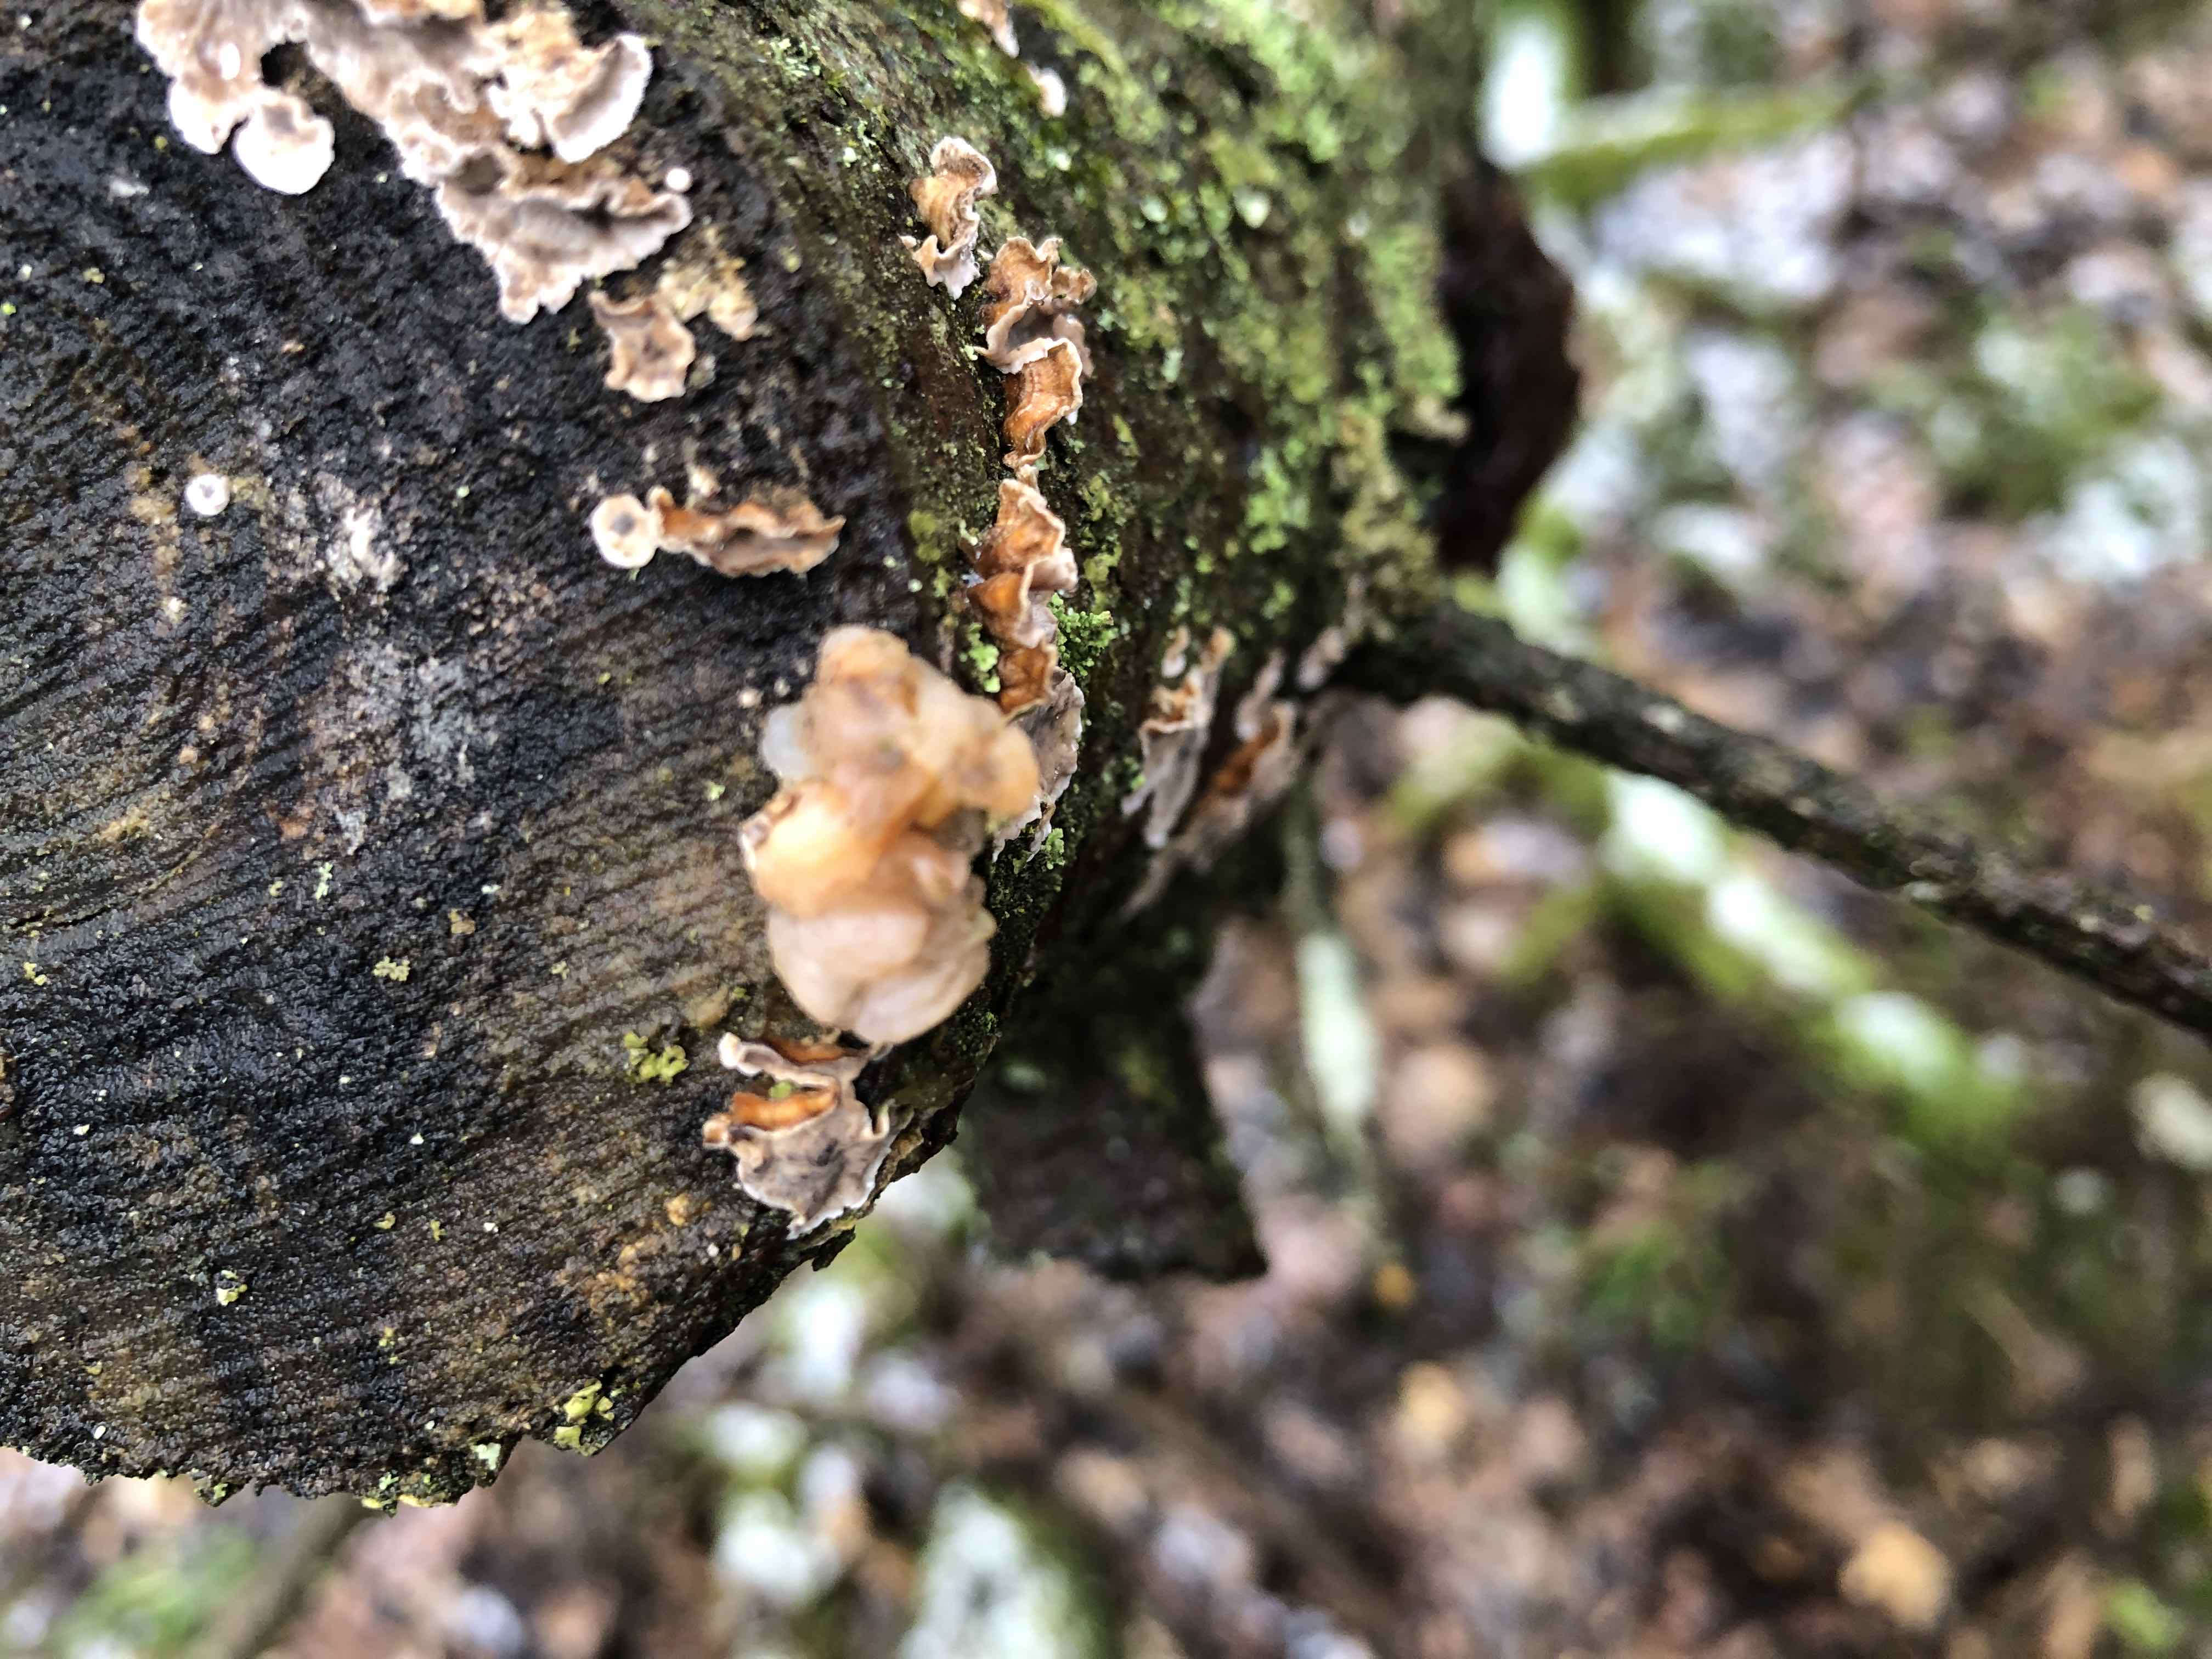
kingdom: Fungi
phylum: Basidiomycota
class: Tremellomycetes
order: Tremellales
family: Naemateliaceae
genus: Naematelia
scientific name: Naematelia encephala
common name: fyrre-bævresvamp
